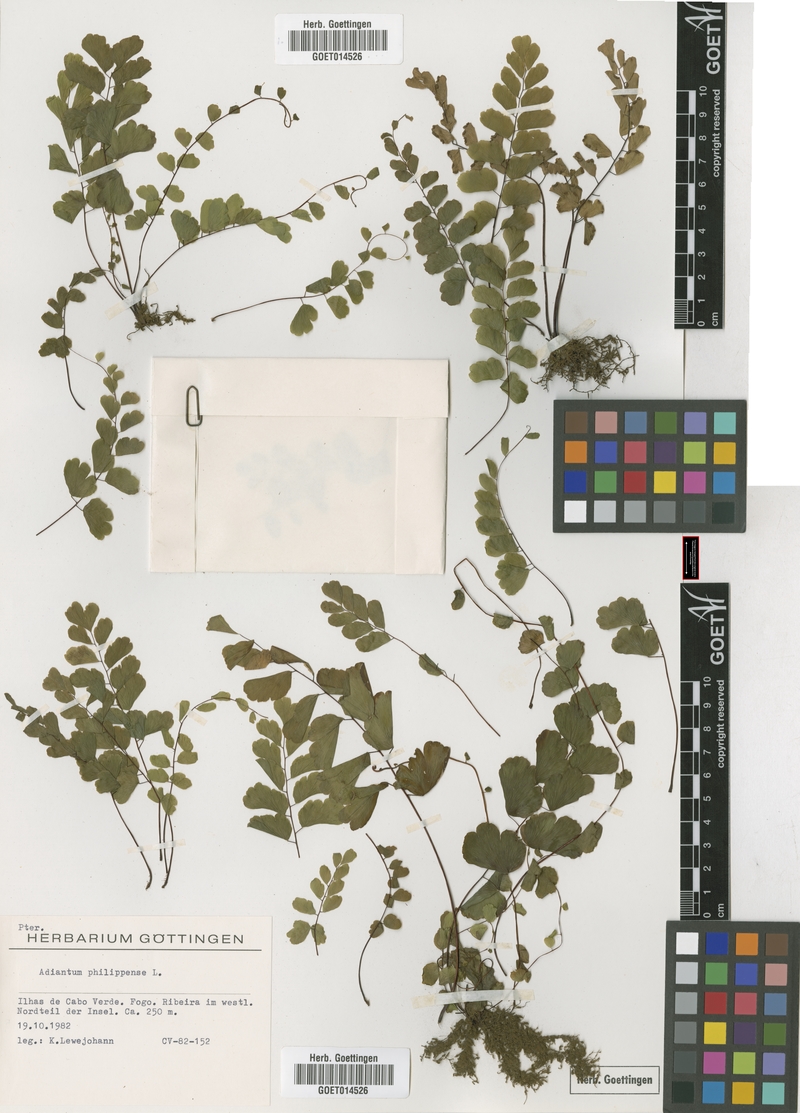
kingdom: Plantae
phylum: Tracheophyta
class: Polypodiopsida
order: Polypodiales
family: Pteridaceae
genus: Adiantum
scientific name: Adiantum philippense
